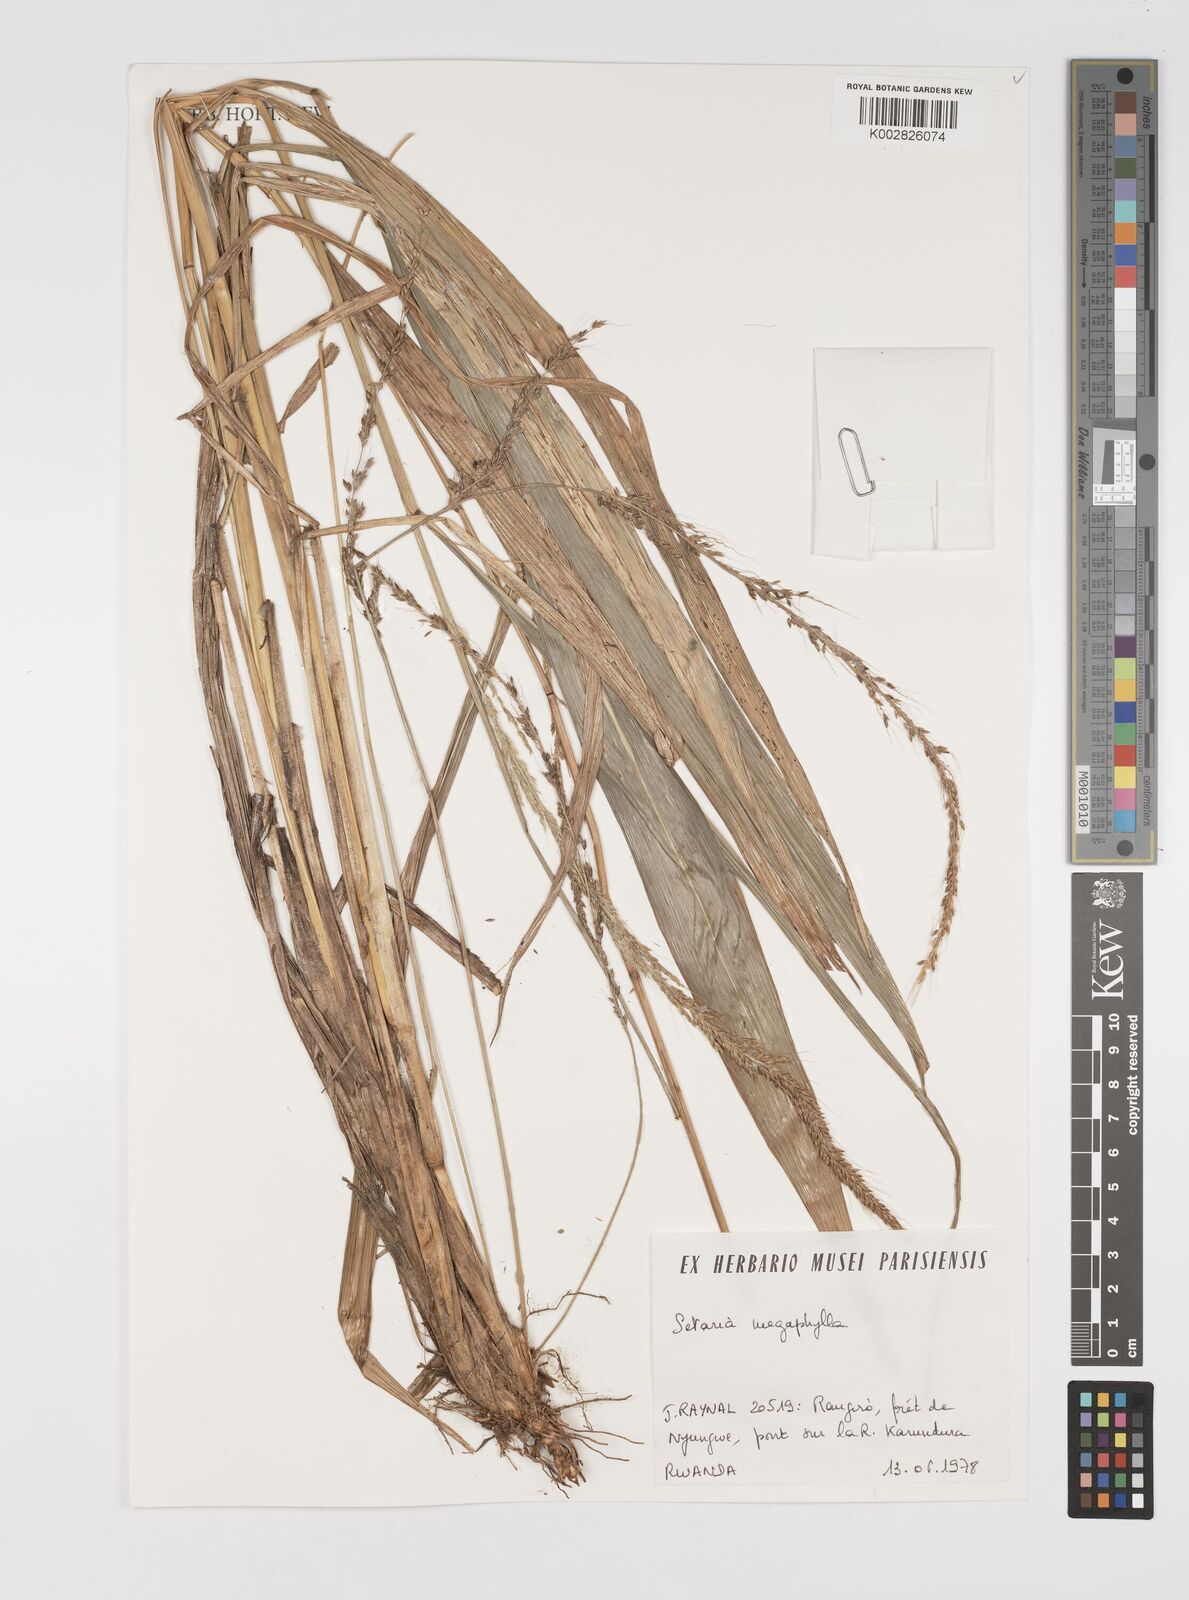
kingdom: Plantae
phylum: Tracheophyta
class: Liliopsida
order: Poales
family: Poaceae
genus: Setaria
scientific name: Setaria megaphylla
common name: Bigleaf bristlegrass
